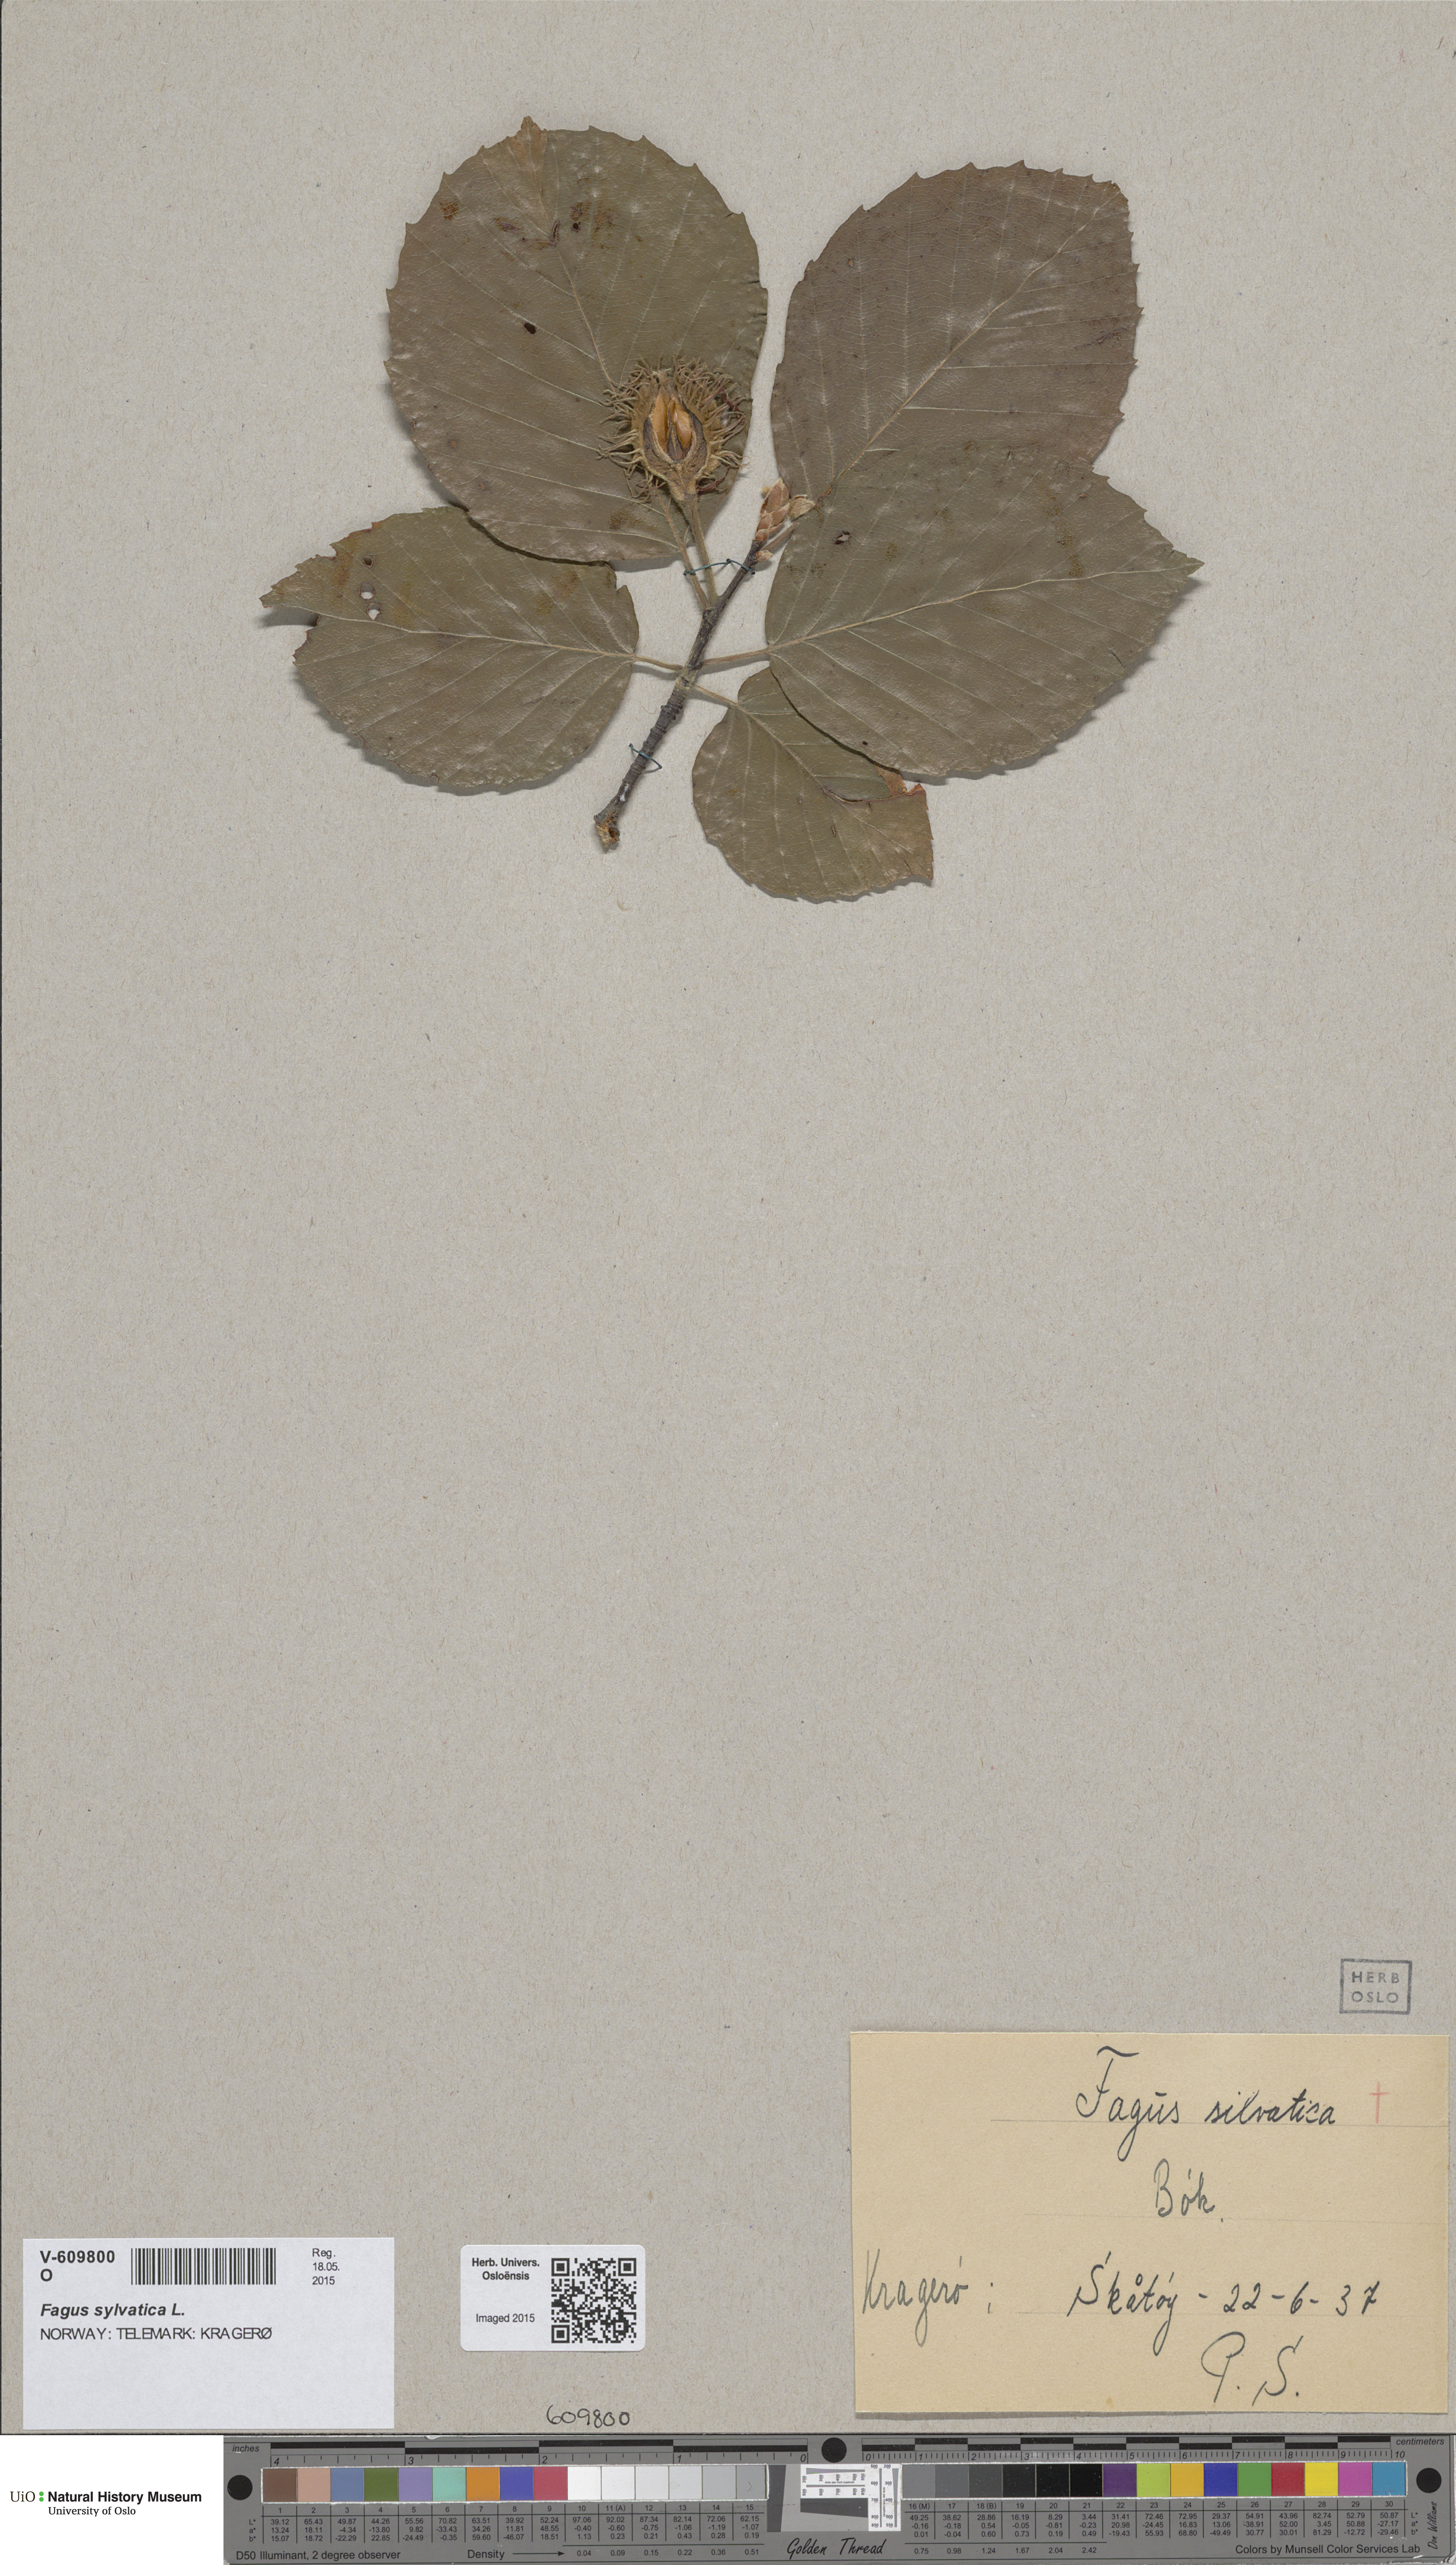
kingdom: Plantae
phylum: Tracheophyta
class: Magnoliopsida
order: Fagales
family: Fagaceae
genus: Fagus
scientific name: Fagus sylvatica
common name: Beech
